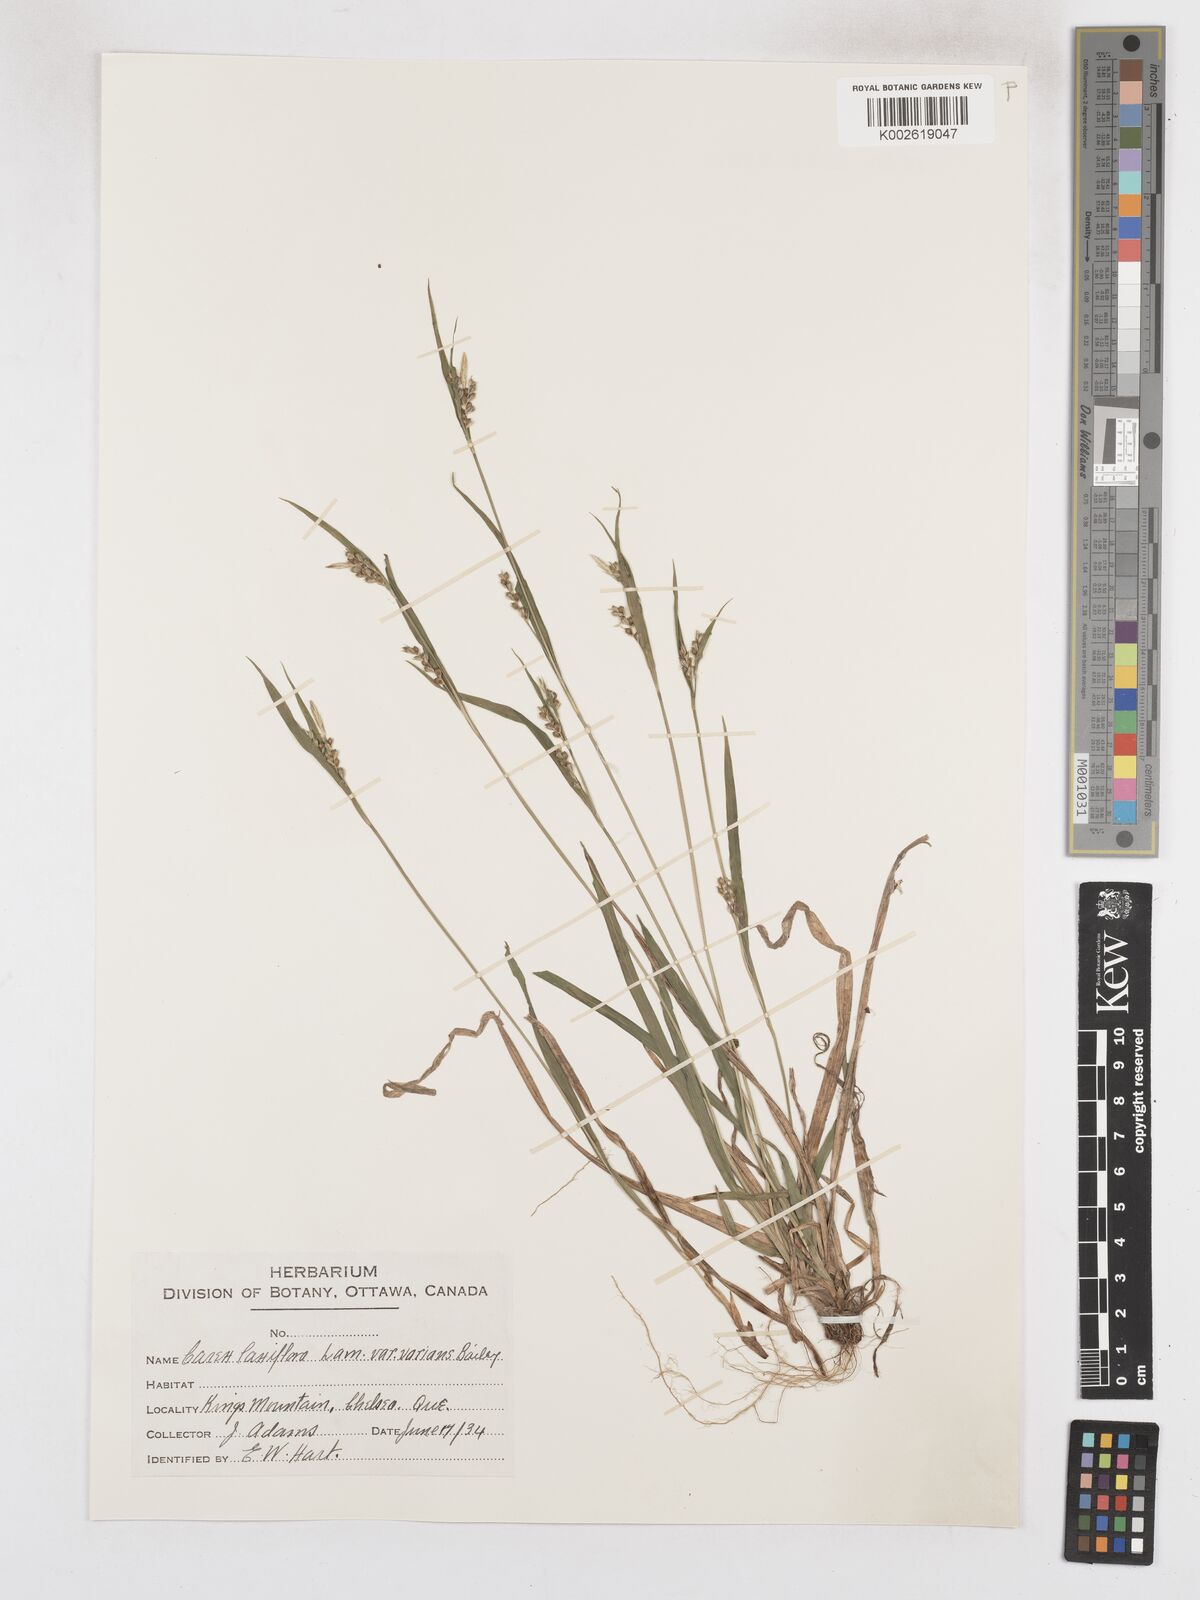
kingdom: Plantae
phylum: Tracheophyta
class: Liliopsida
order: Poales
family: Cyperaceae
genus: Carex
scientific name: Carex blanda
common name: Bland sedge
